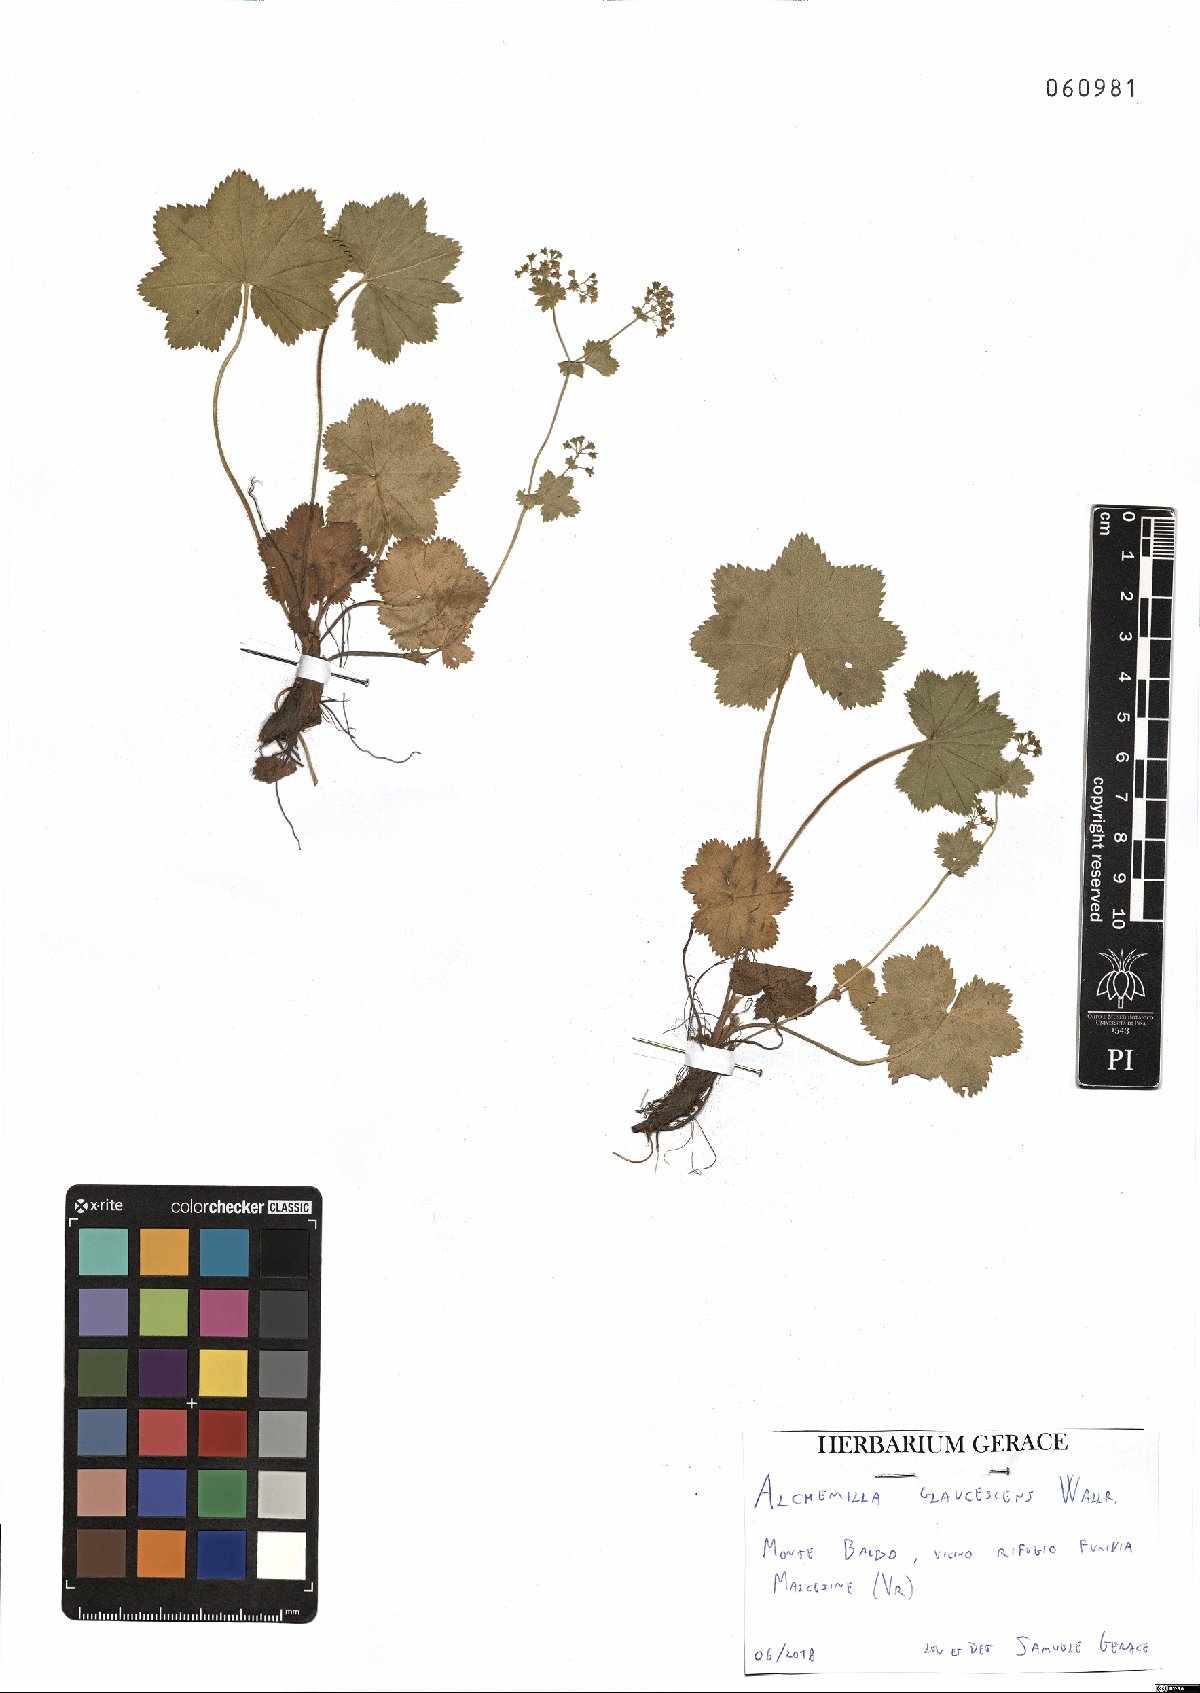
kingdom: Plantae
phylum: Tracheophyta
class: Magnoliopsida
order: Rosales
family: Rosaceae
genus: Alchemilla
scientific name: Alchemilla glaucescens
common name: Silky lady's mantle
